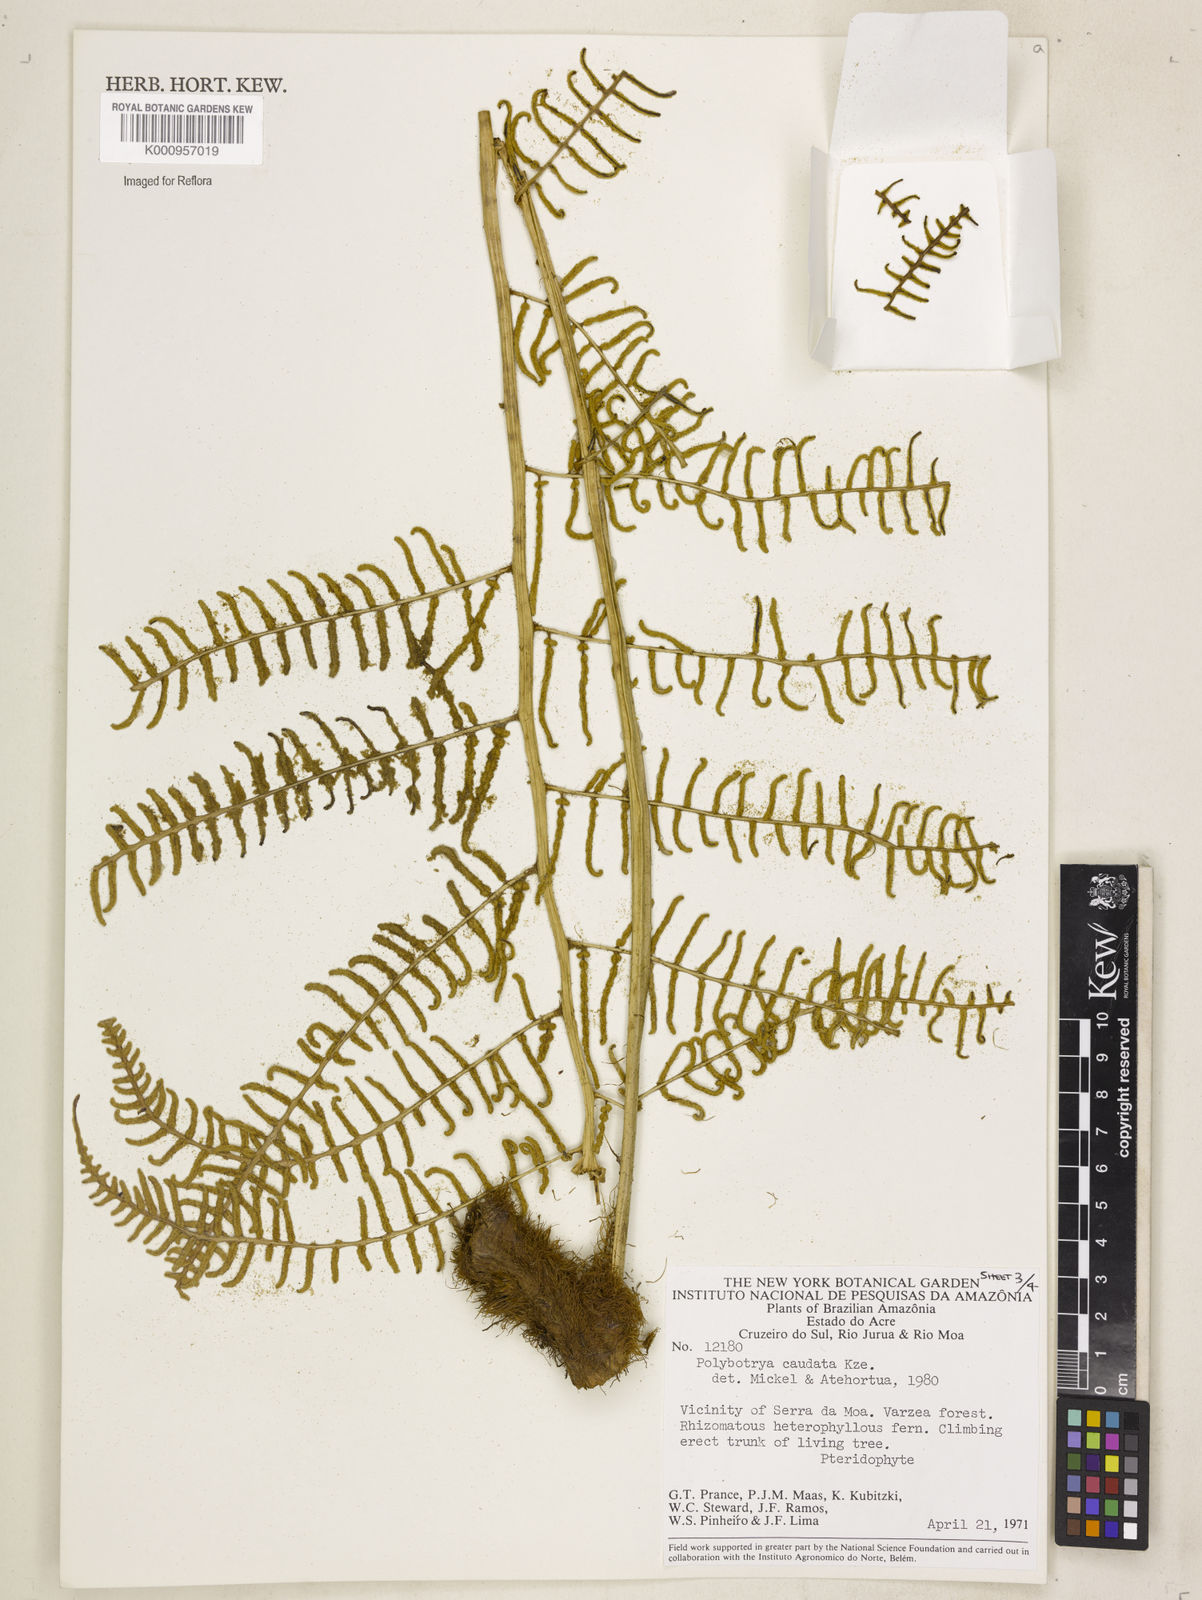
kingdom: Plantae
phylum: Tracheophyta
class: Polypodiopsida
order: Polypodiales
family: Dryopteridaceae
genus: Polybotrya
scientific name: Polybotrya caudata
